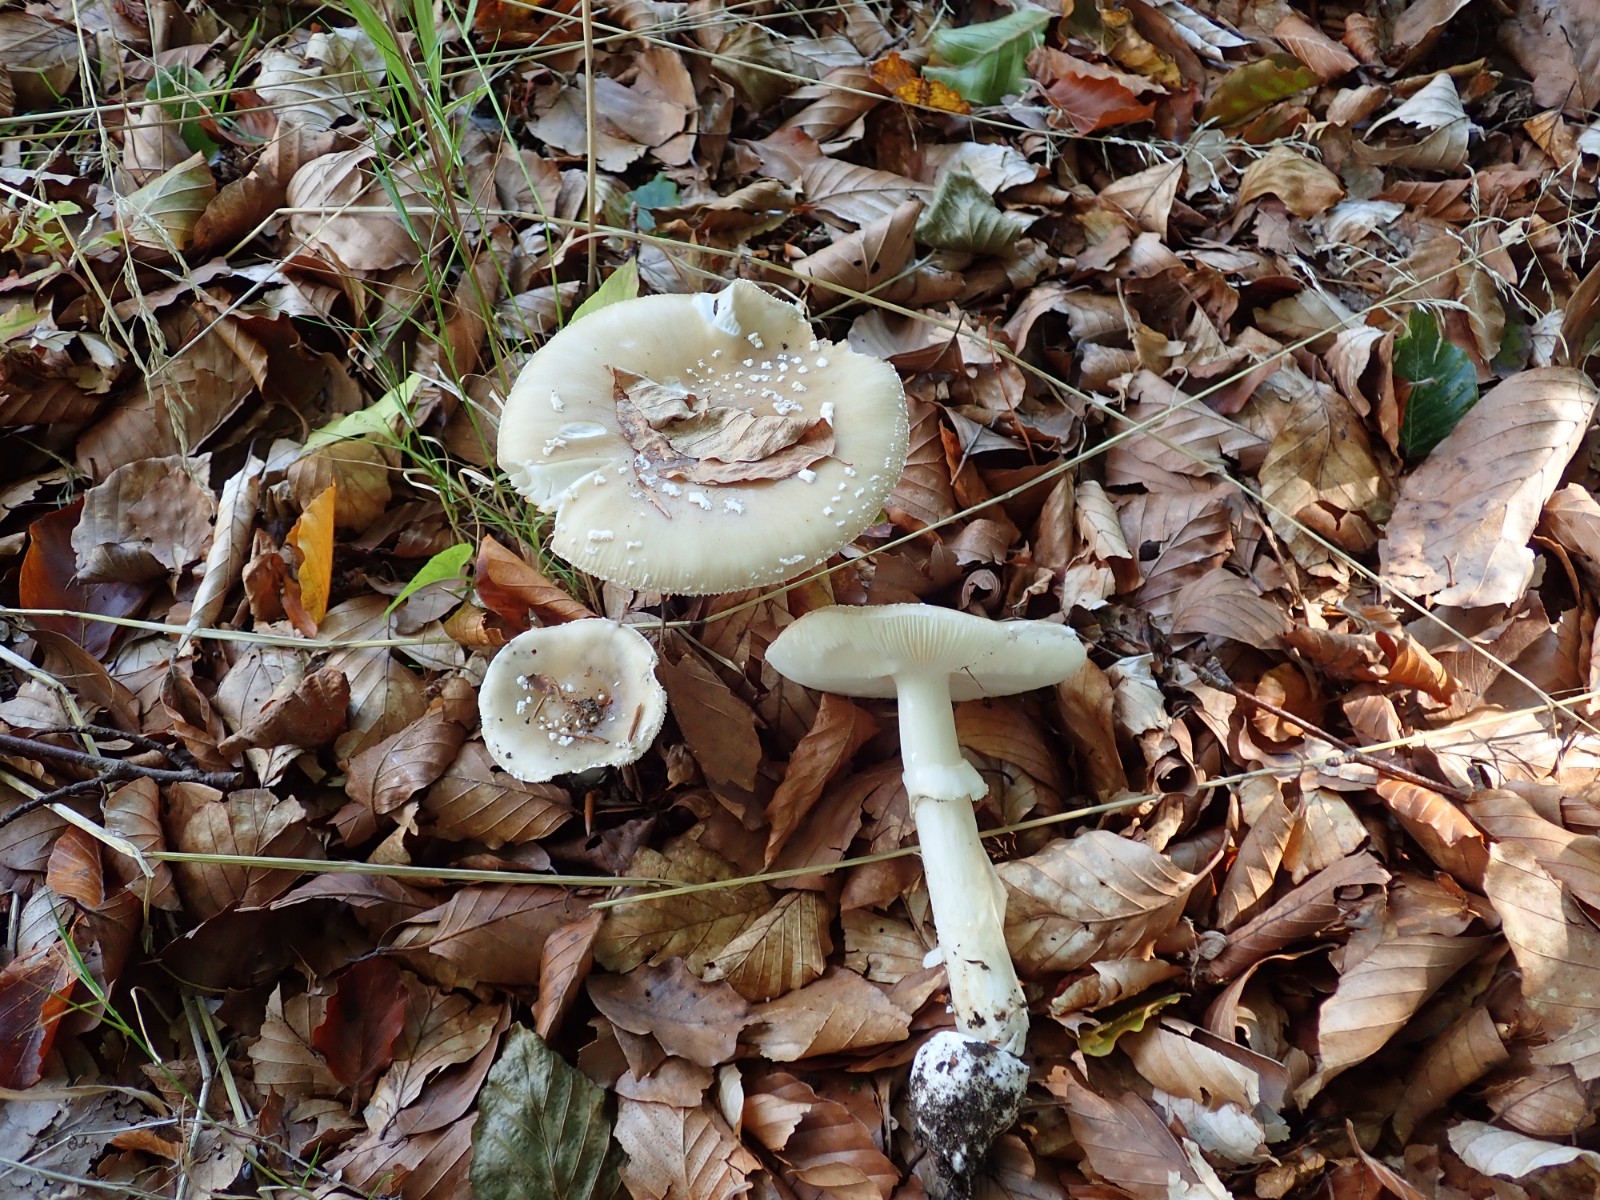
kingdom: Fungi
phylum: Basidiomycota
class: Agaricomycetes
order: Agaricales
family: Amanitaceae
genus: Amanita
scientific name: Amanita pantherina
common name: panter-fluesvamp
